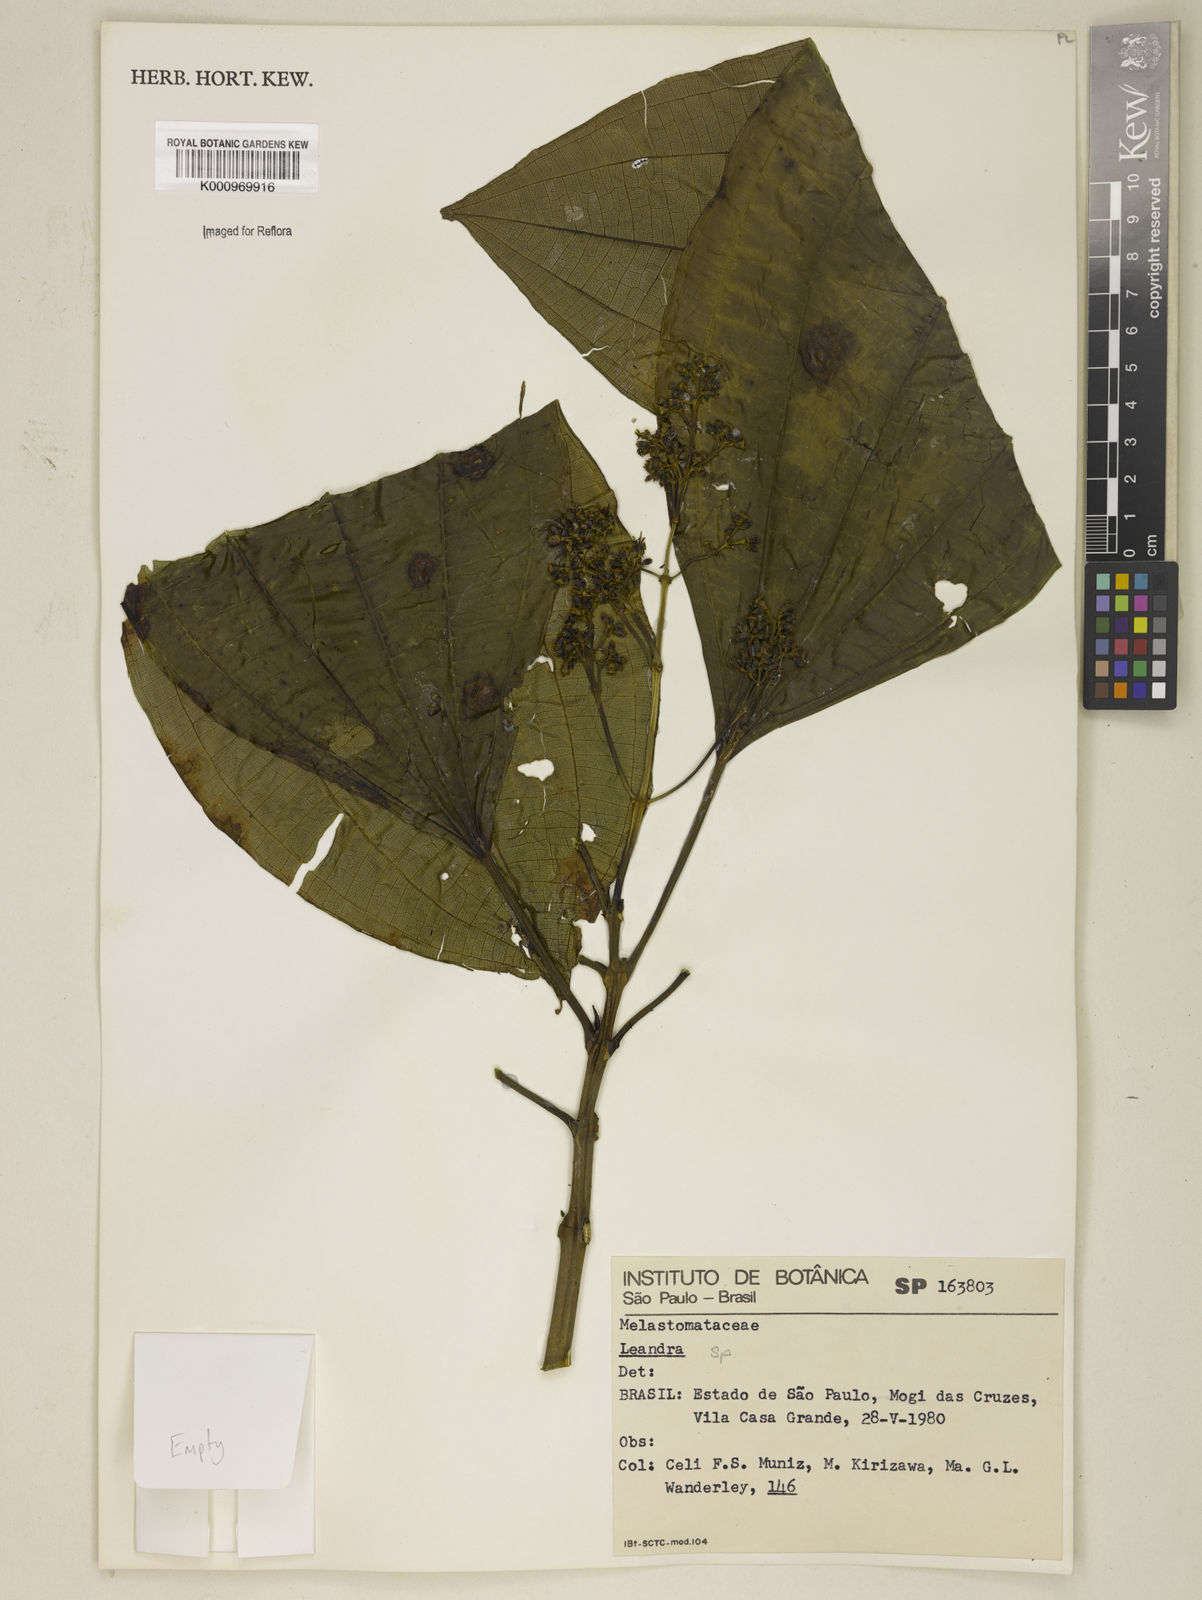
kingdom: Plantae
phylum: Tracheophyta
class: Magnoliopsida
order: Myrtales
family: Melastomataceae
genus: Miconia
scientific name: Miconia
